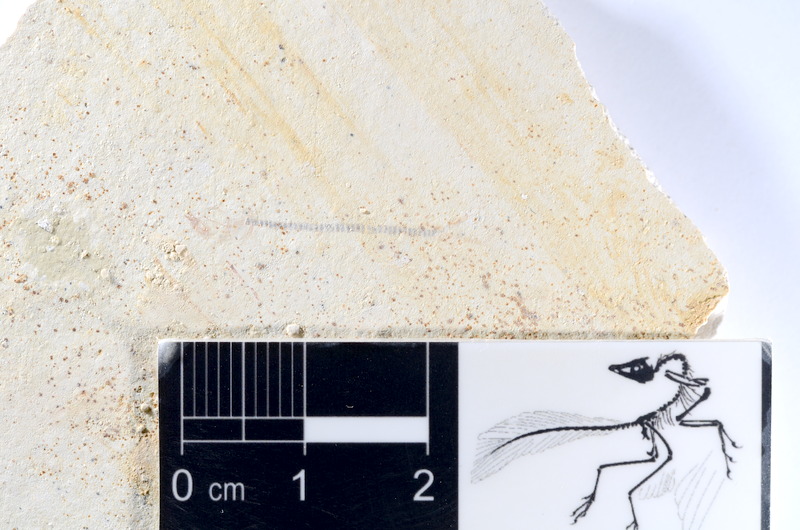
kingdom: Animalia
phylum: Chordata
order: Salmoniformes
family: Orthogonikleithridae
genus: Orthogonikleithrus
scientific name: Orthogonikleithrus hoelli
